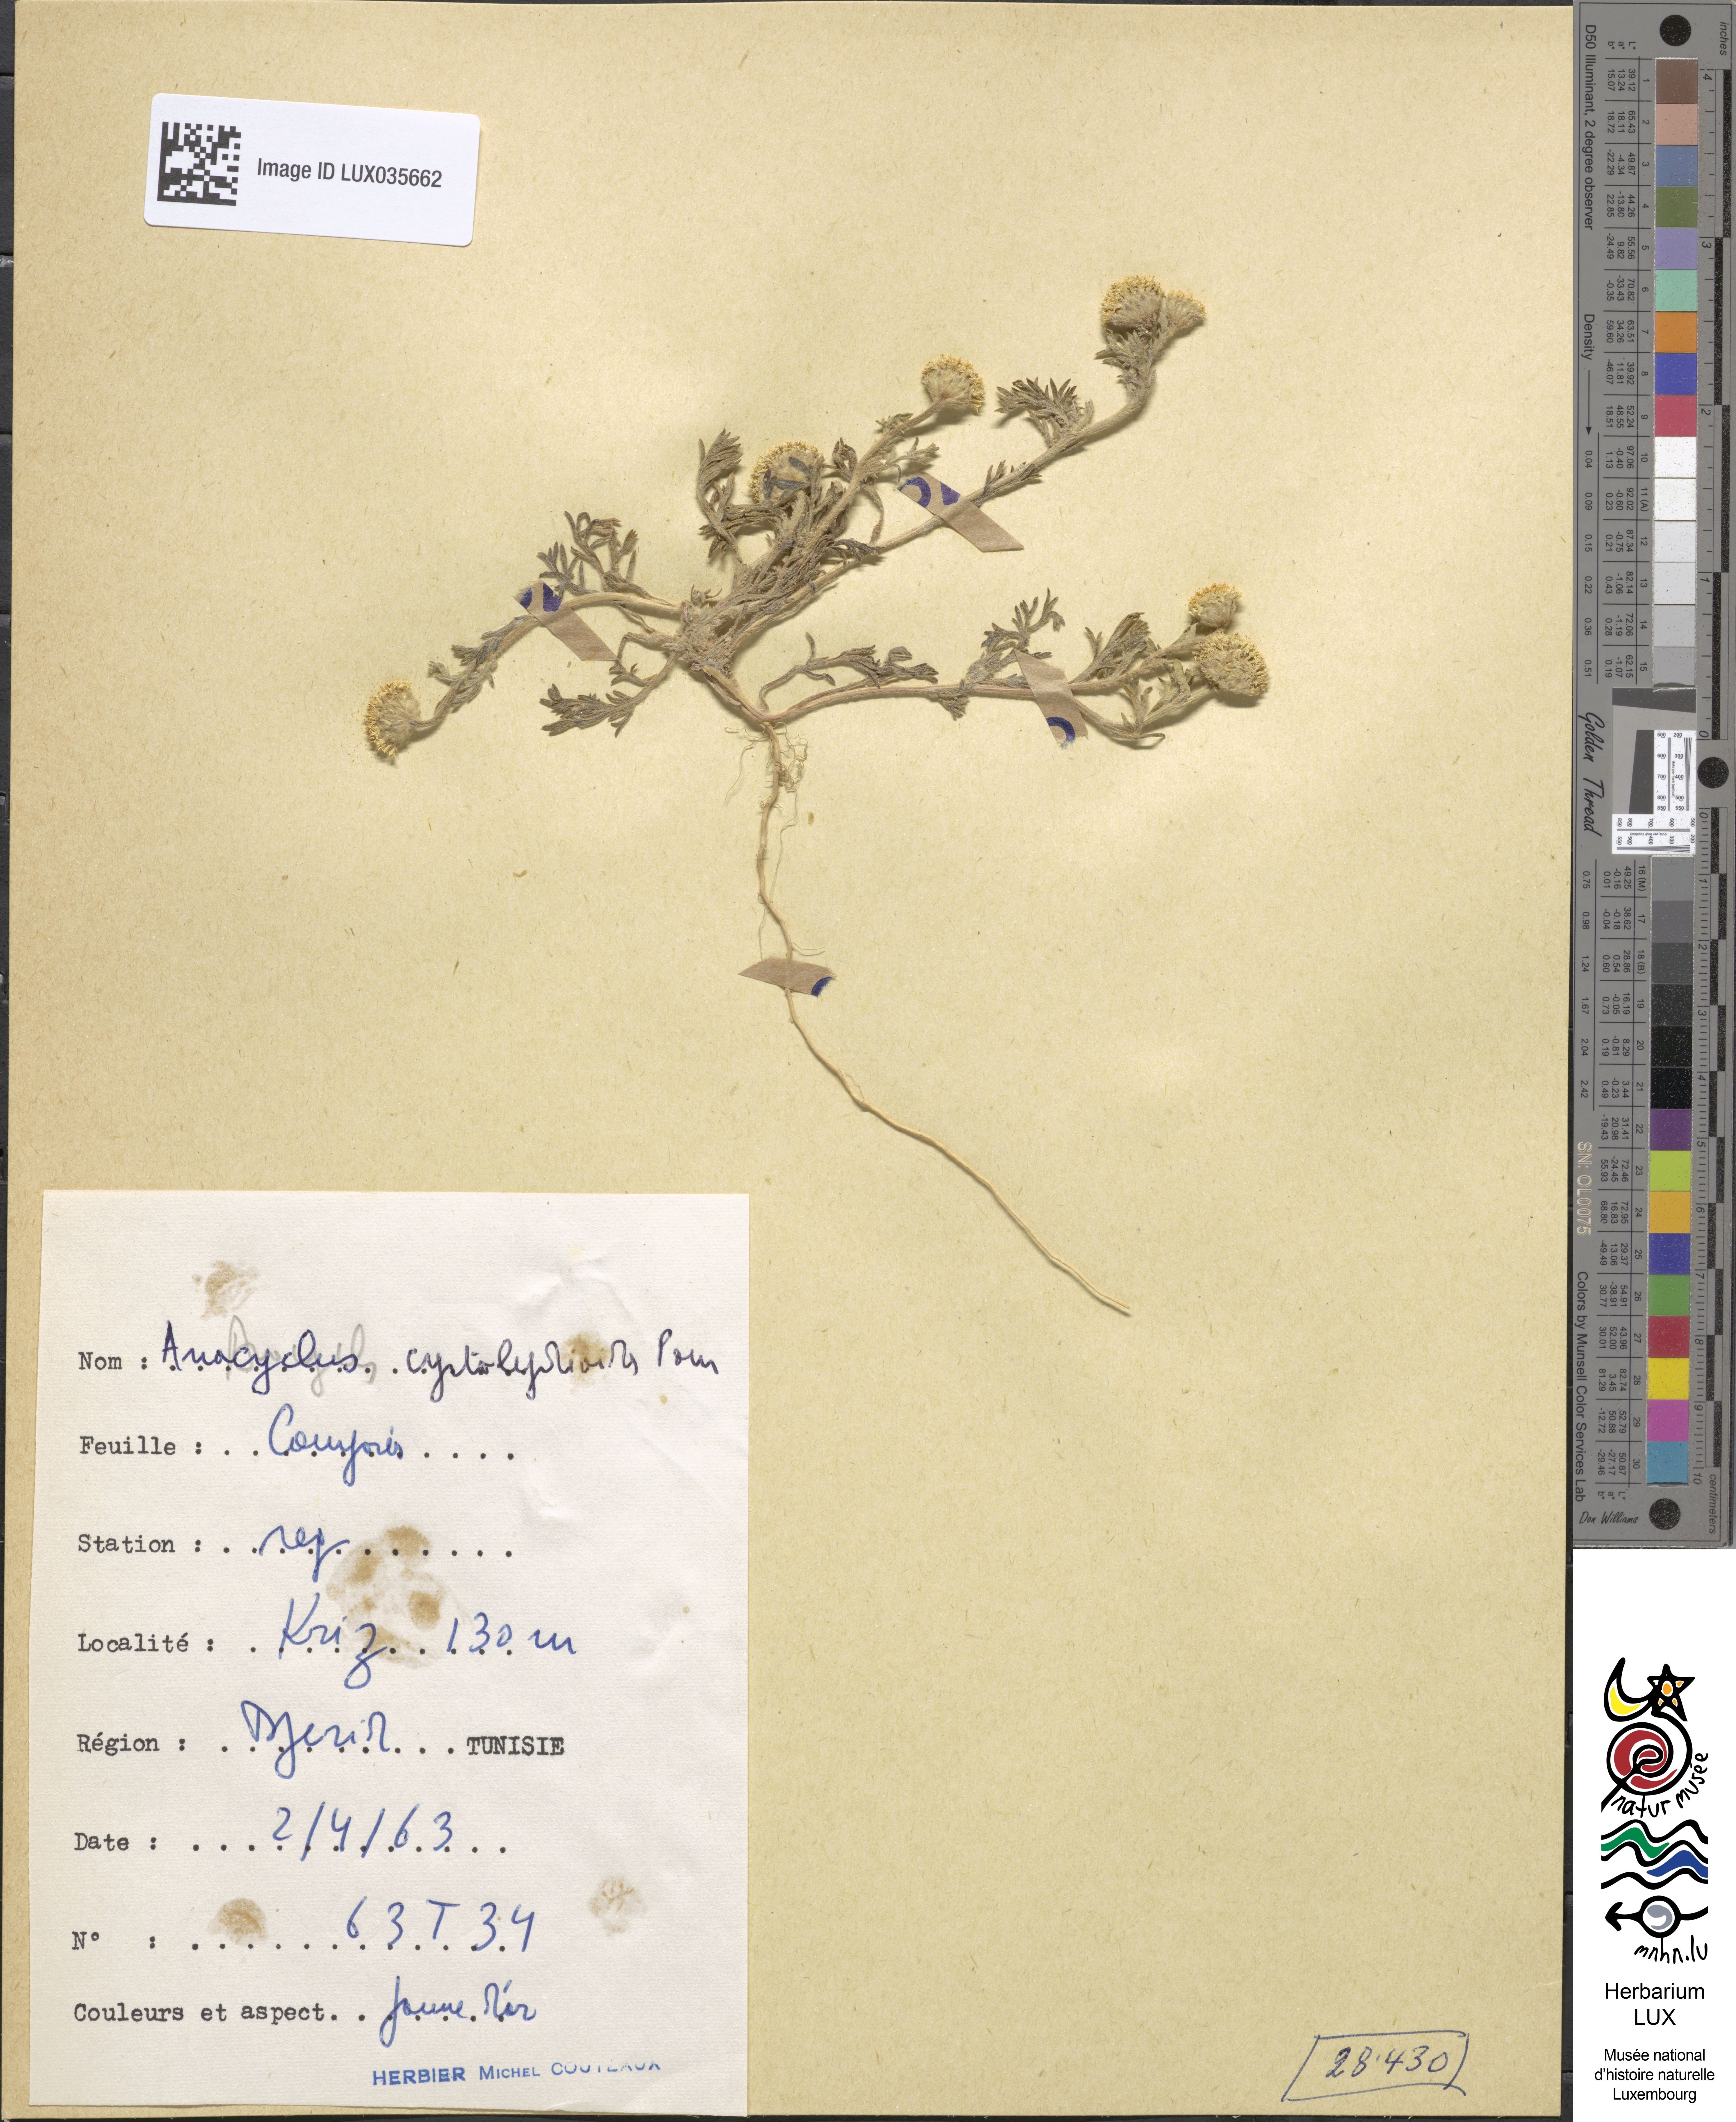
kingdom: Plantae
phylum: Tracheophyta
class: Magnoliopsida
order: Asterales
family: Asteraceae
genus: Anacyclus
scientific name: Anacyclus
